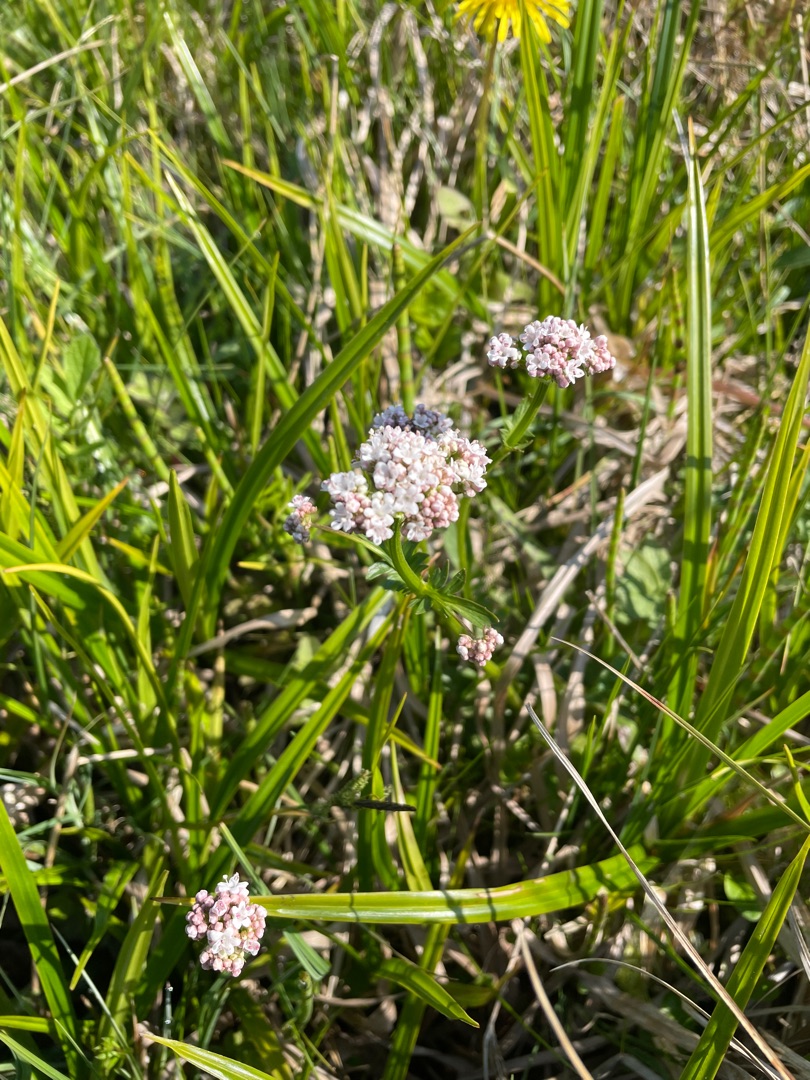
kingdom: Plantae
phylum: Tracheophyta
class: Magnoliopsida
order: Dipsacales
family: Caprifoliaceae
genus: Valeriana
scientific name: Valeriana dioica
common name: Tvebo baldrian
